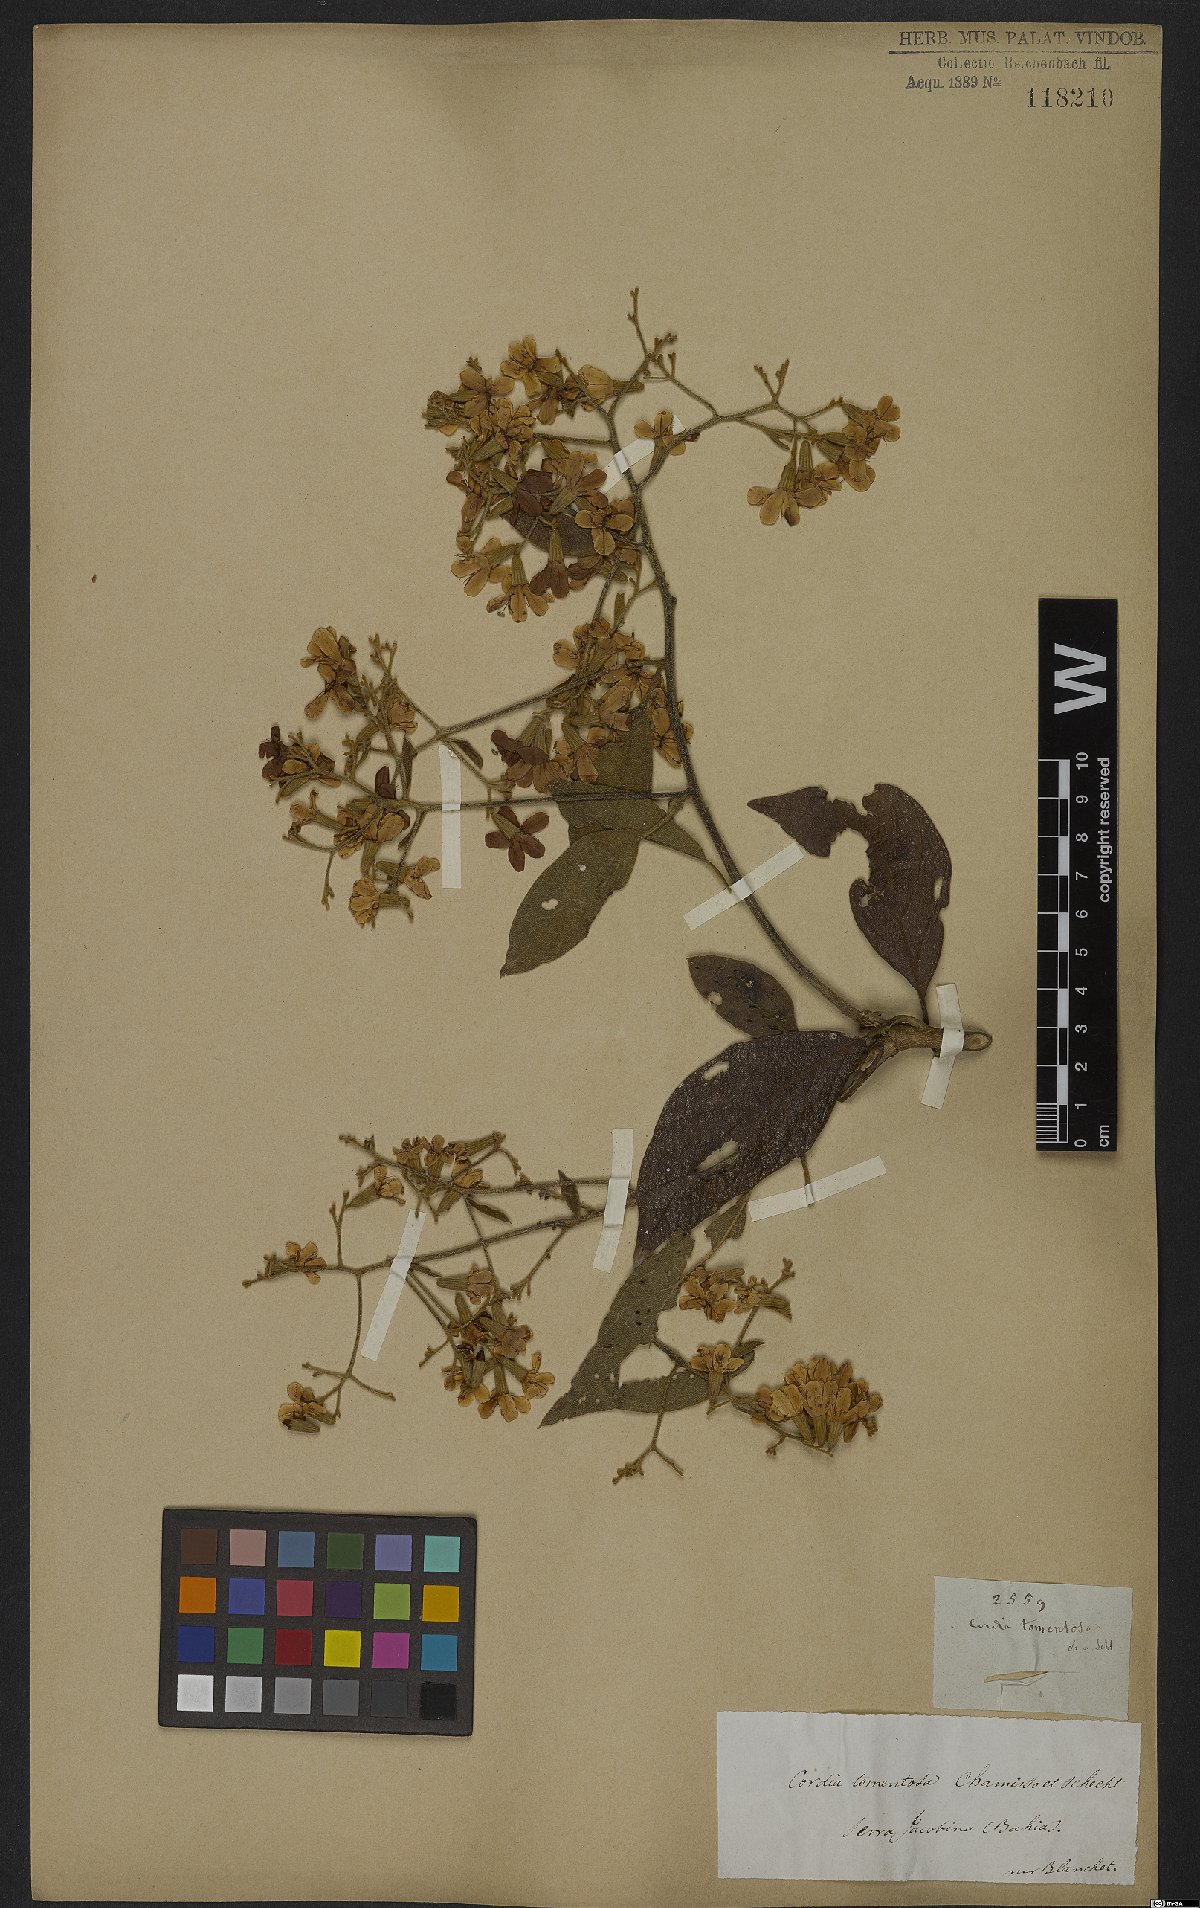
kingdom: Plantae
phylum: Tracheophyta
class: Magnoliopsida
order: Boraginales
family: Cordiaceae
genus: Cordia
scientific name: Cordia chamissoniana
